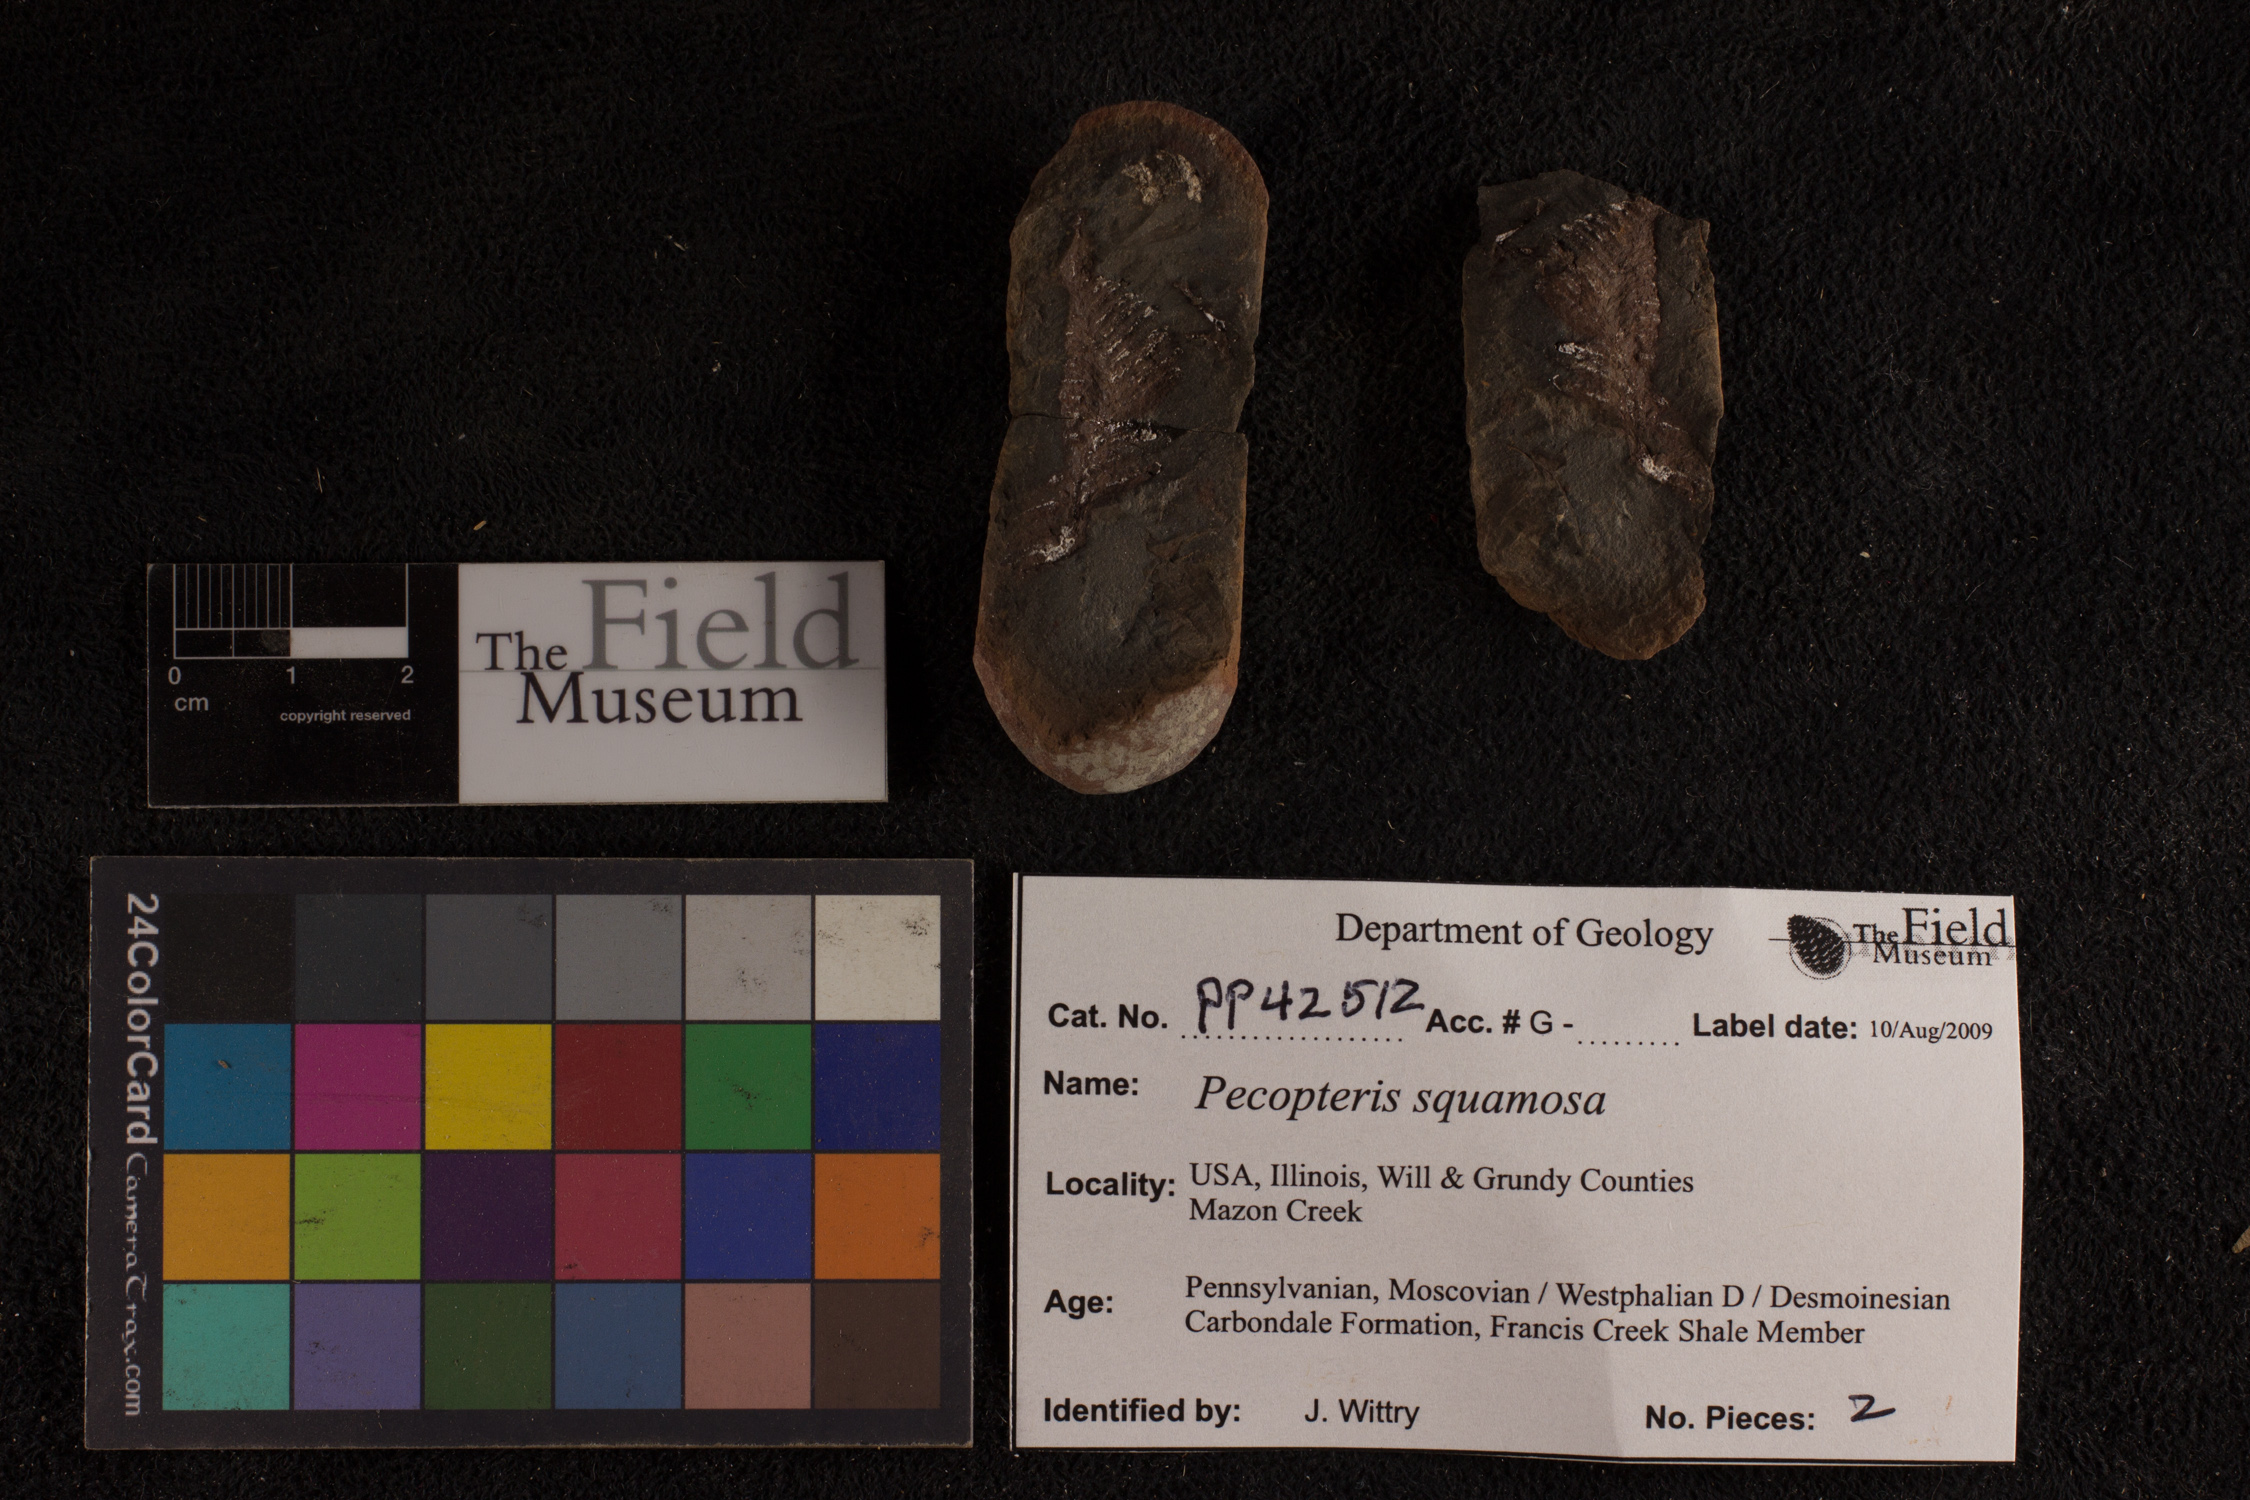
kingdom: Plantae
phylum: Tracheophyta
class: Polypodiopsida
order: Marattiales
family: Asterothecaceae
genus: Pecopteris
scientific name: Pecopteris
